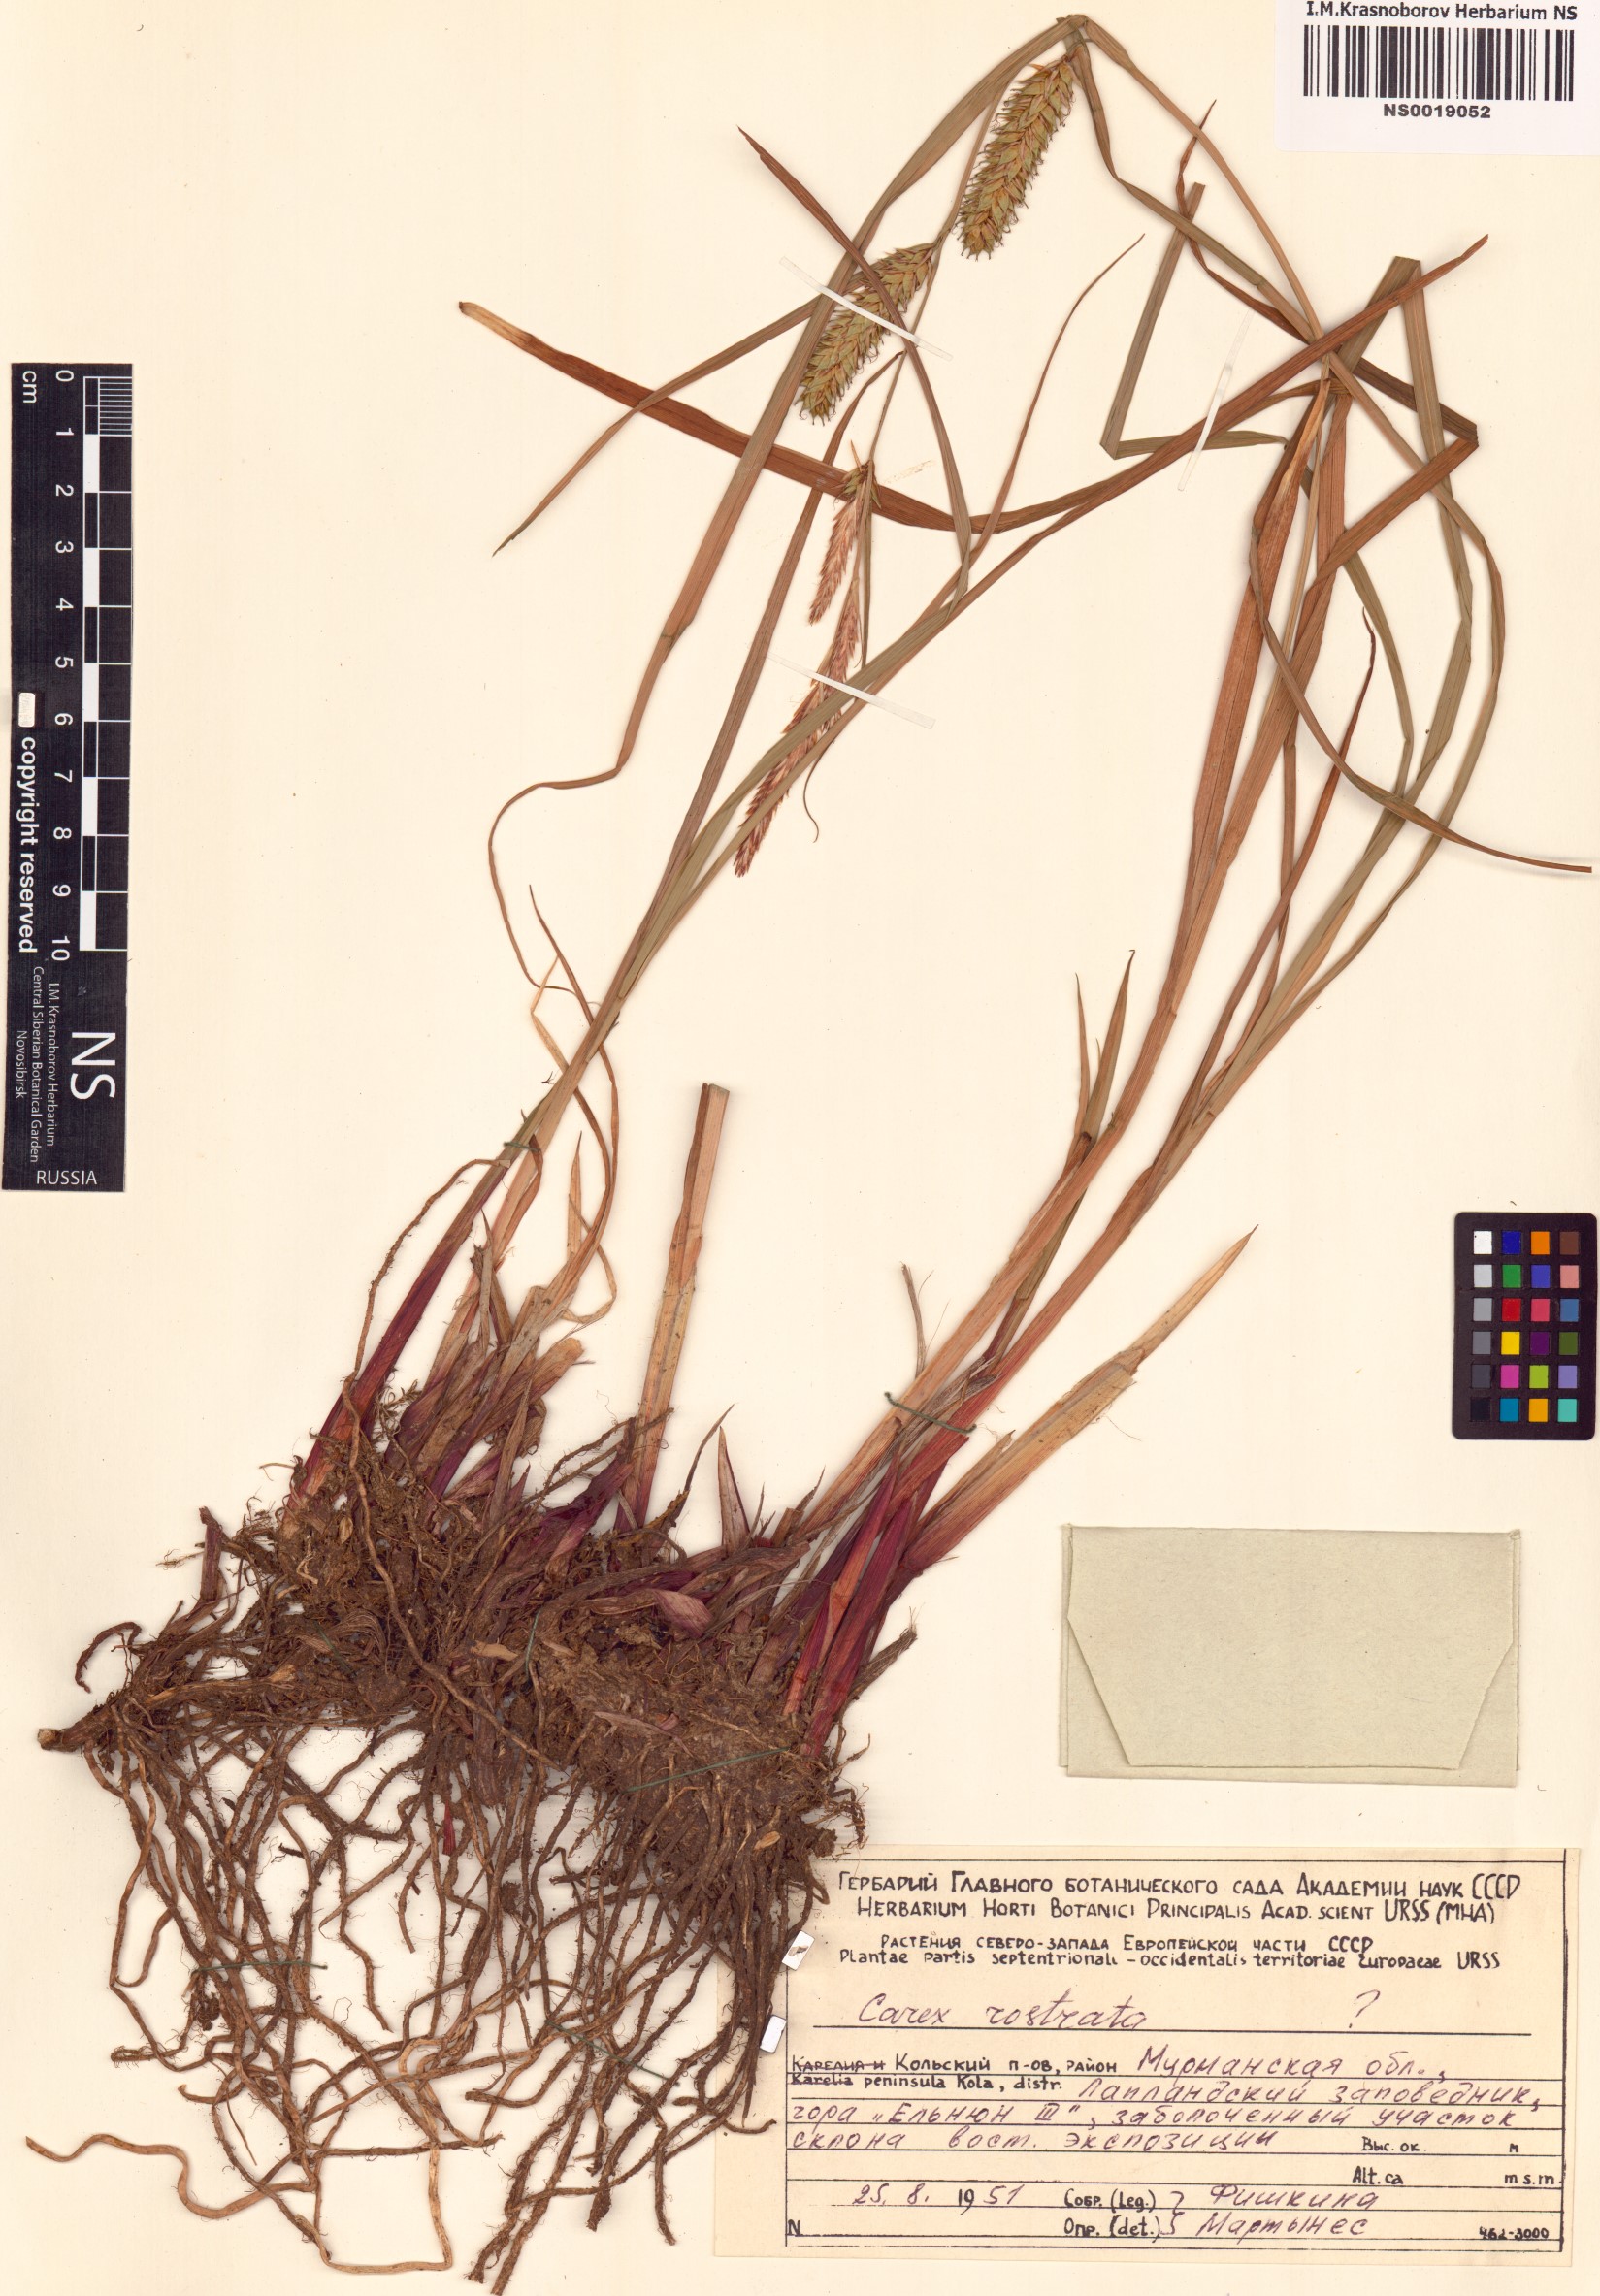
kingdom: Plantae
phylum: Tracheophyta
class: Liliopsida
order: Poales
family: Cyperaceae
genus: Carex
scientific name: Carex rostrata
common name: Bottle sedge
